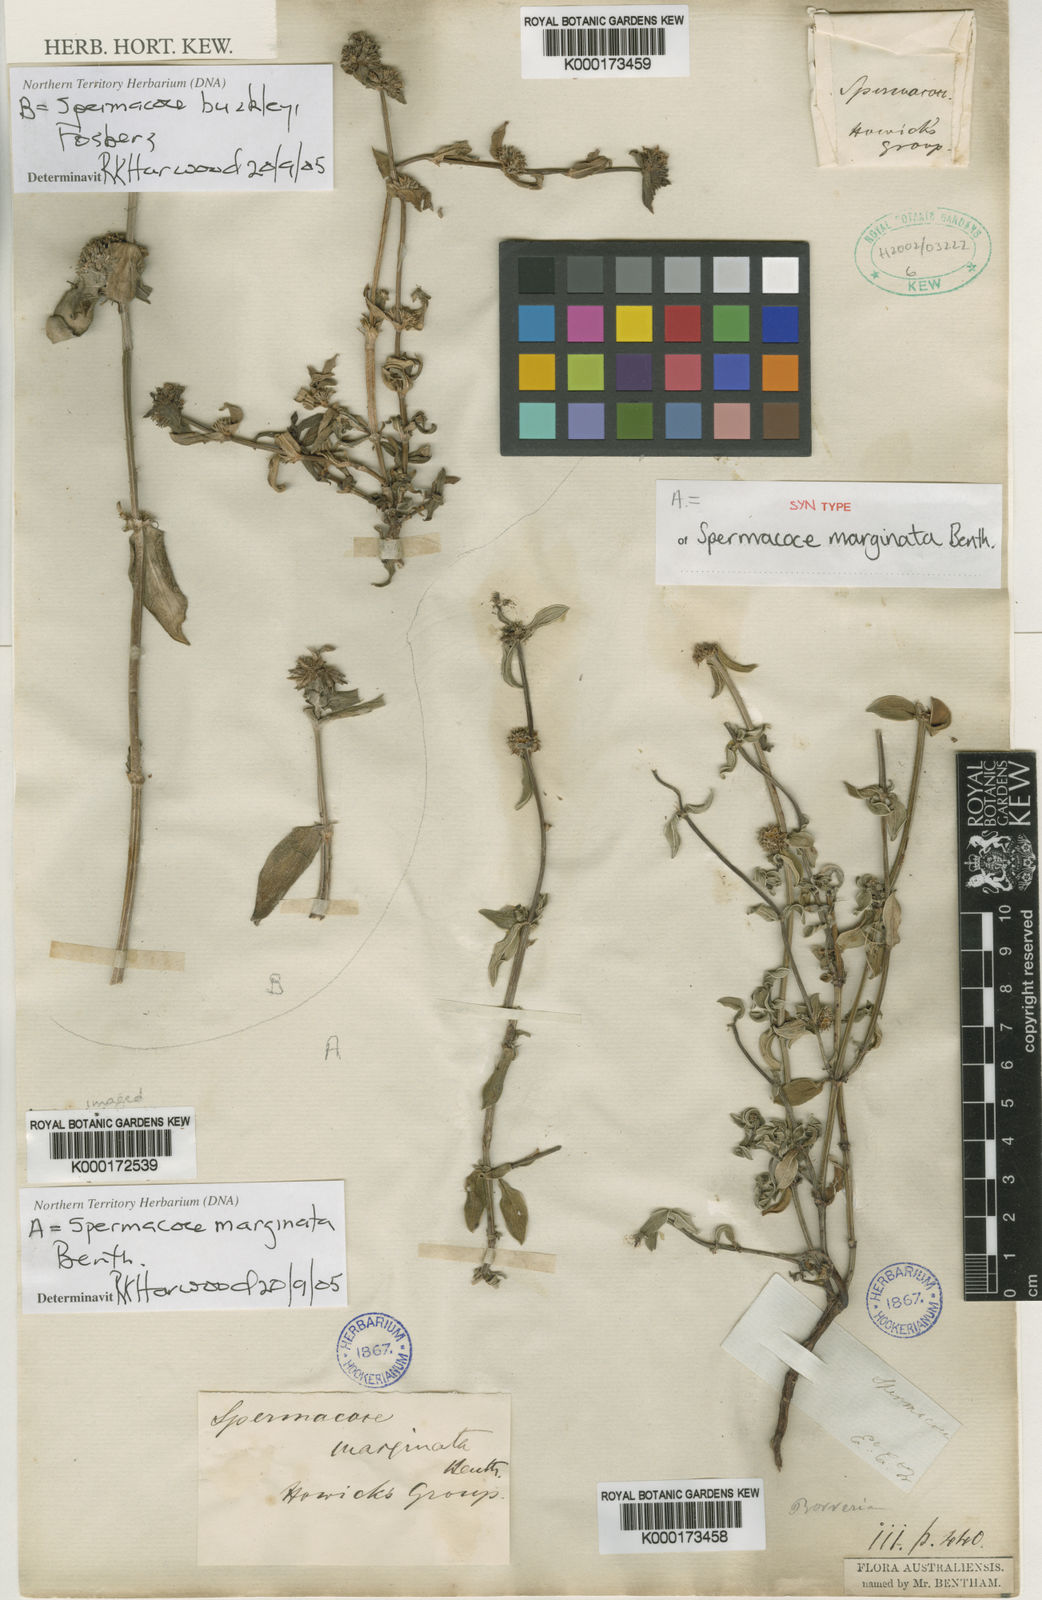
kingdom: Plantae
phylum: Tracheophyta
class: Magnoliopsida
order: Gentianales
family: Rubiaceae
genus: Spermacoce
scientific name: Spermacoce marginata
